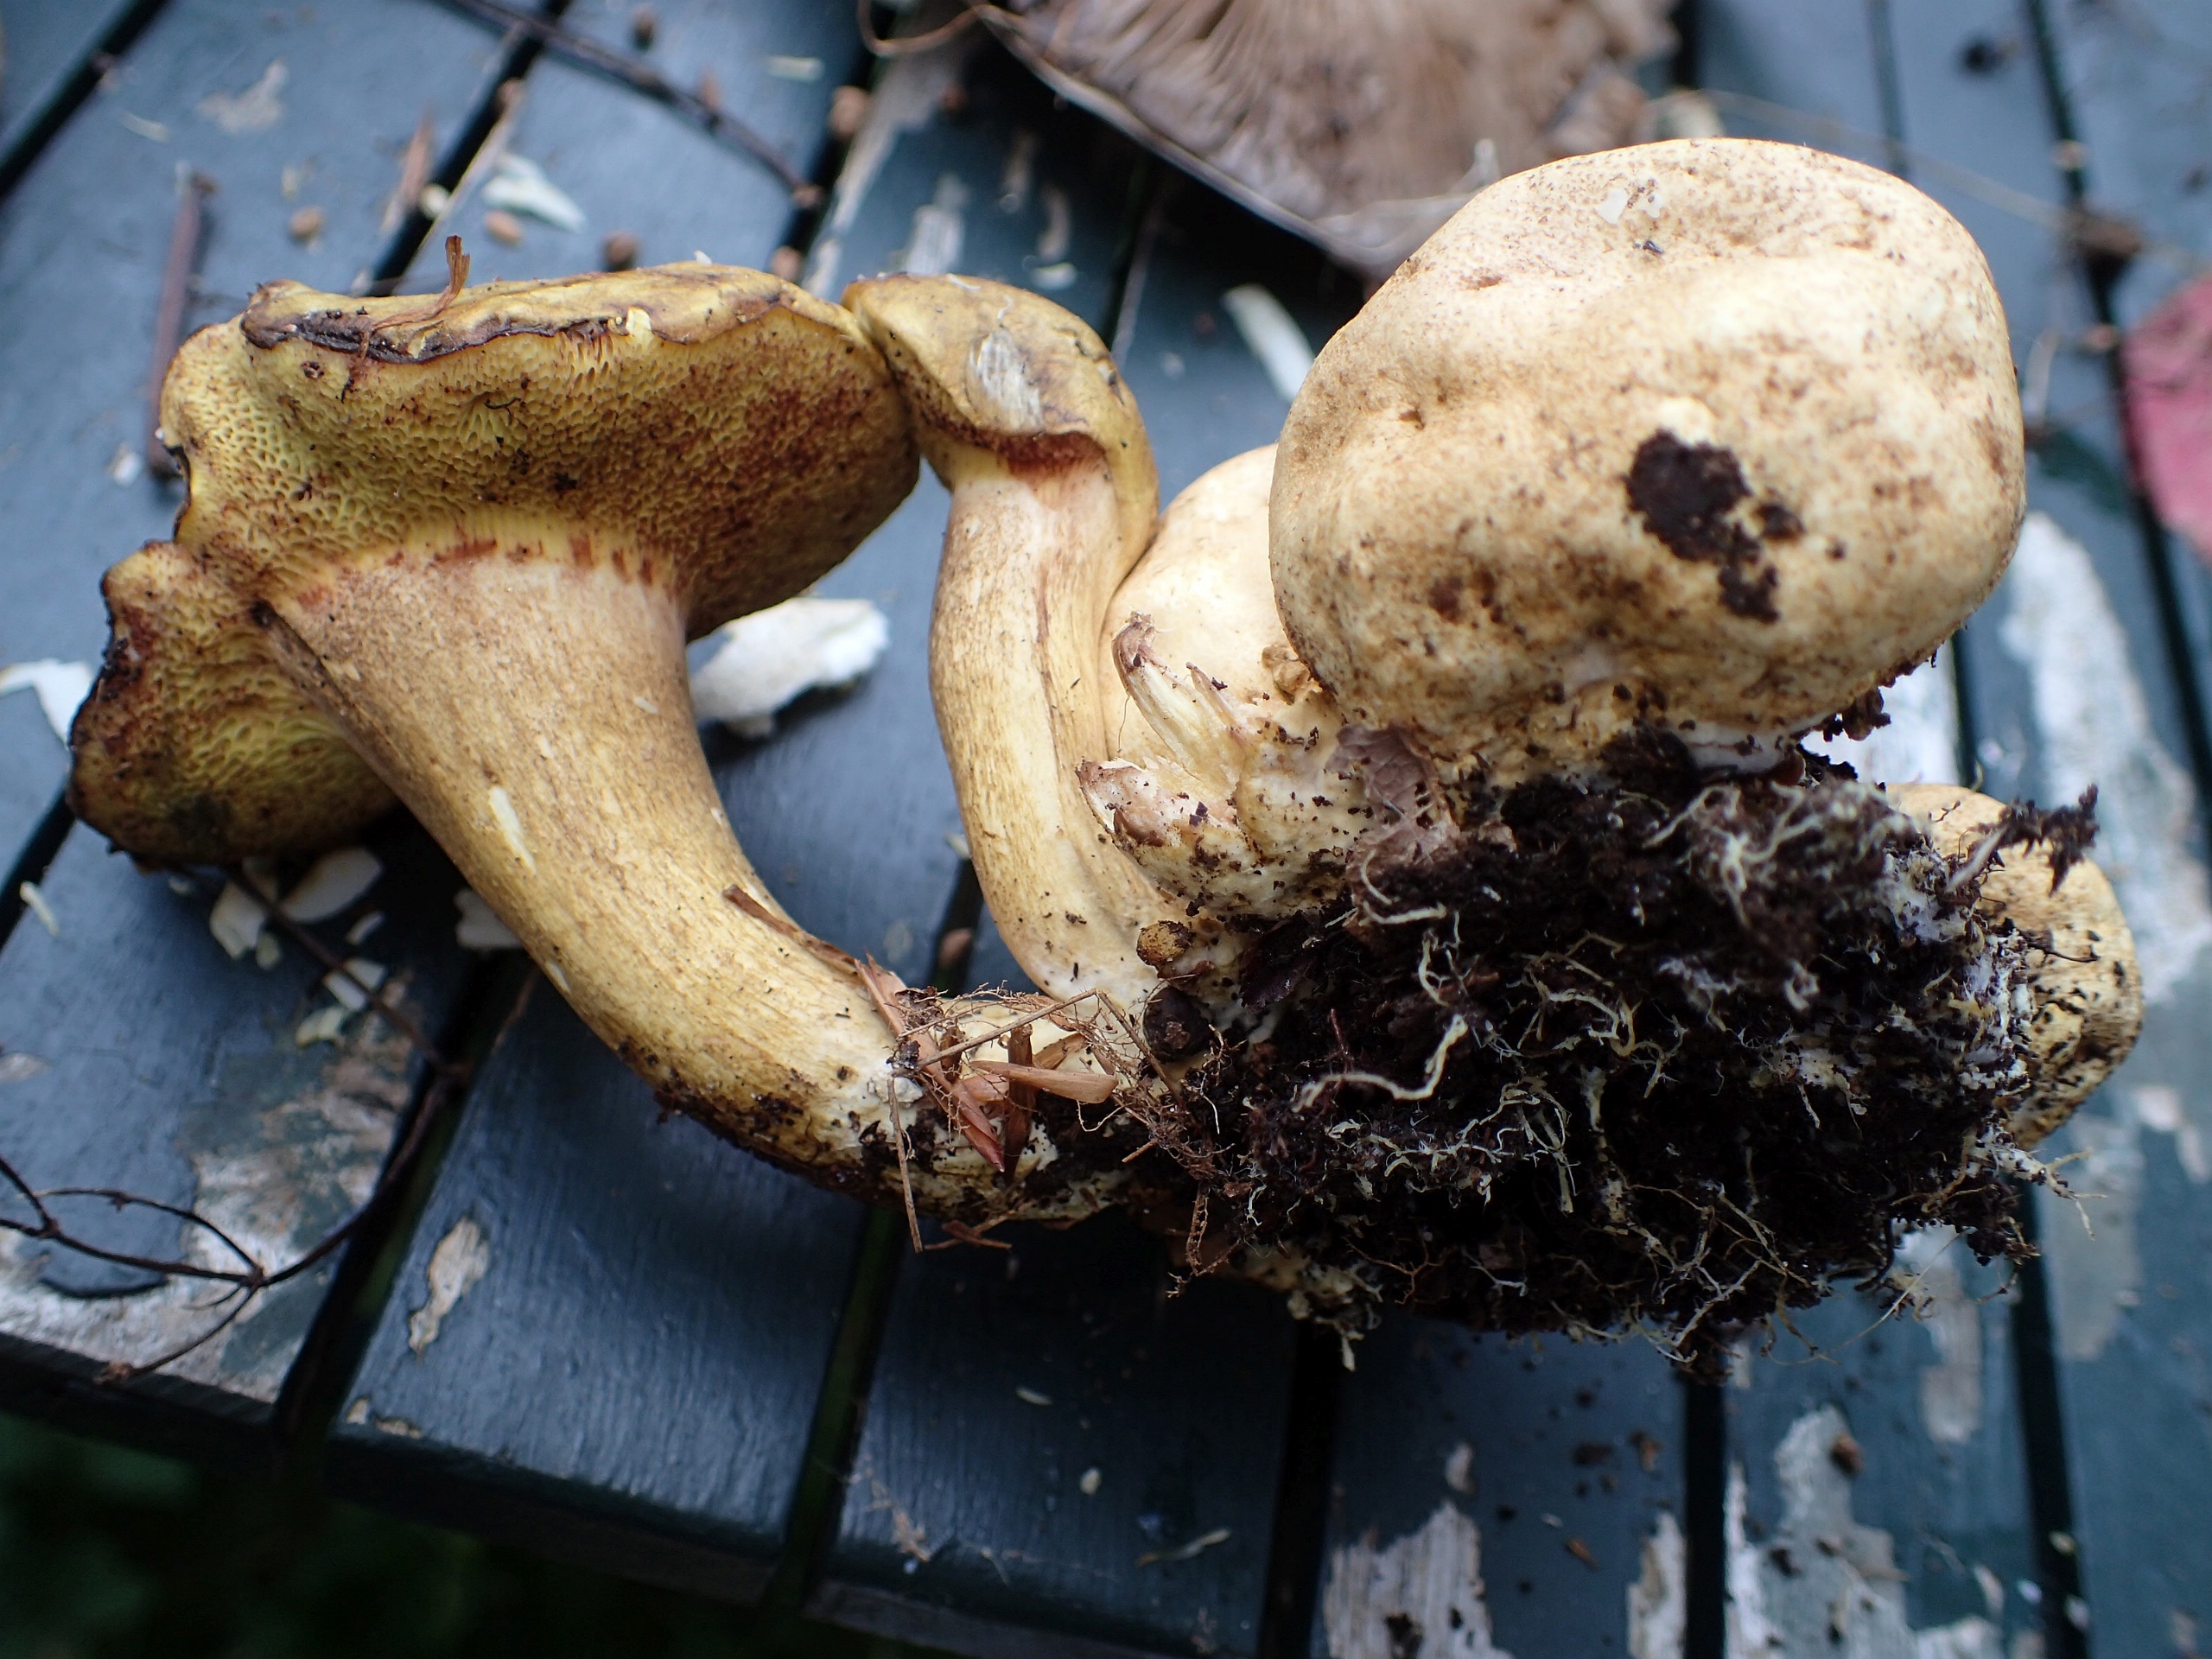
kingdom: Fungi
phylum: Basidiomycota
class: Agaricomycetes
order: Boletales
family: Boletaceae
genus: Pseudoboletus
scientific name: Pseudoboletus parasiticus
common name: Snyltende rørhat
